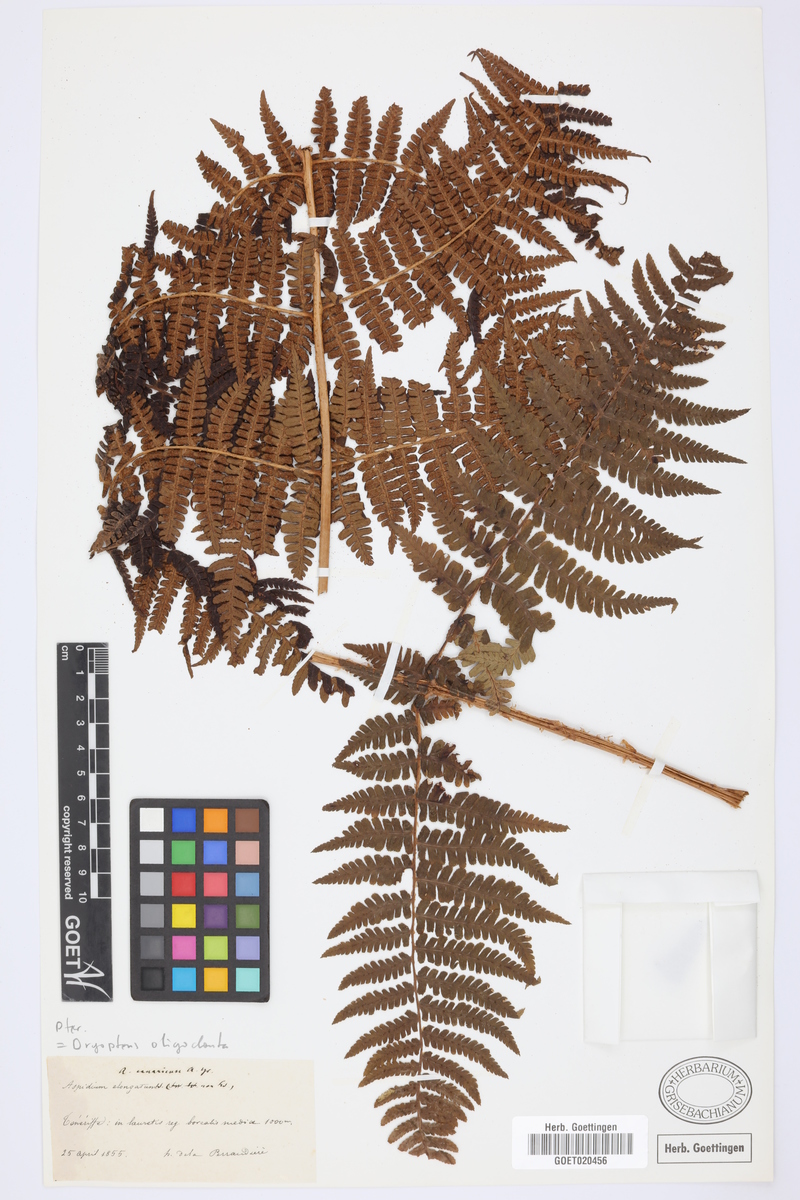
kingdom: Plantae
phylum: Tracheophyta
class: Polypodiopsida
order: Polypodiales
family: Dryopteridaceae
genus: Dryopteris
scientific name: Dryopteris oligodonta
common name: Canarian male-fern
